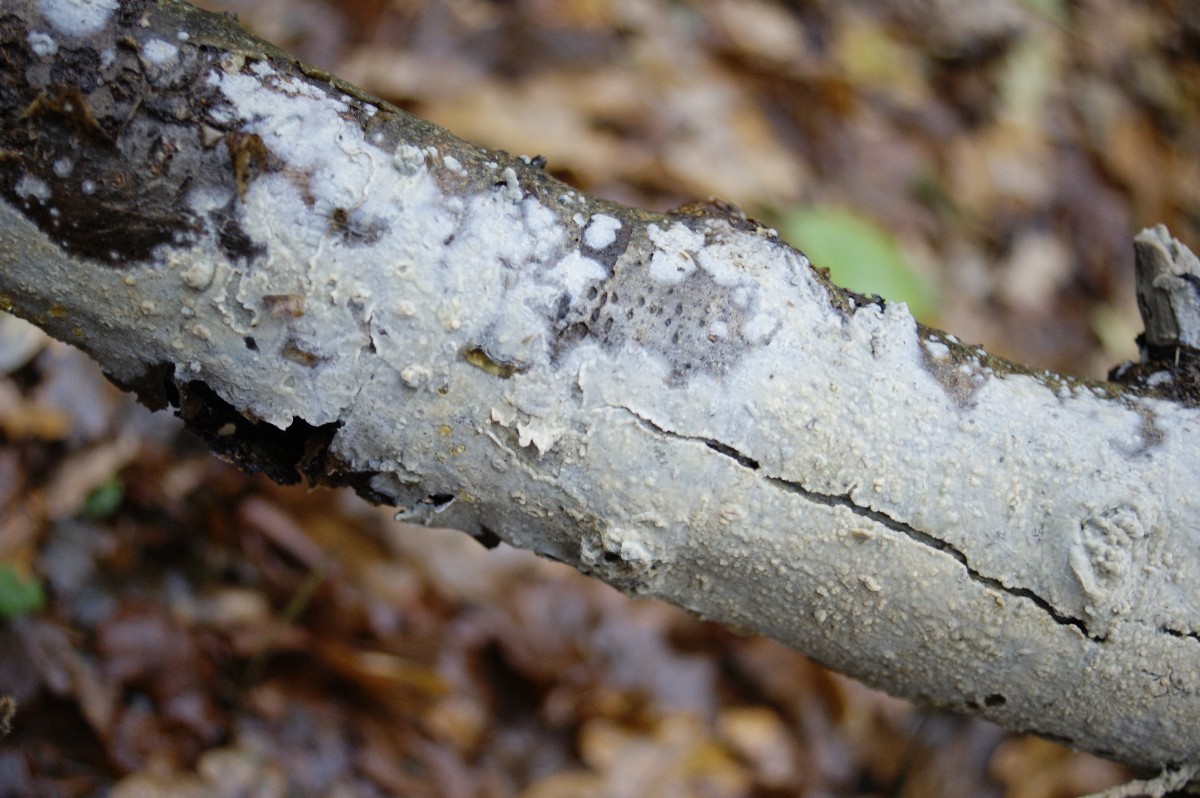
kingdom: Fungi
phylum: Basidiomycota
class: Agaricomycetes
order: Agaricales
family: Radulomycetaceae
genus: Radulomyces
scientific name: Radulomyces confluens
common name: glat naftalinskind
